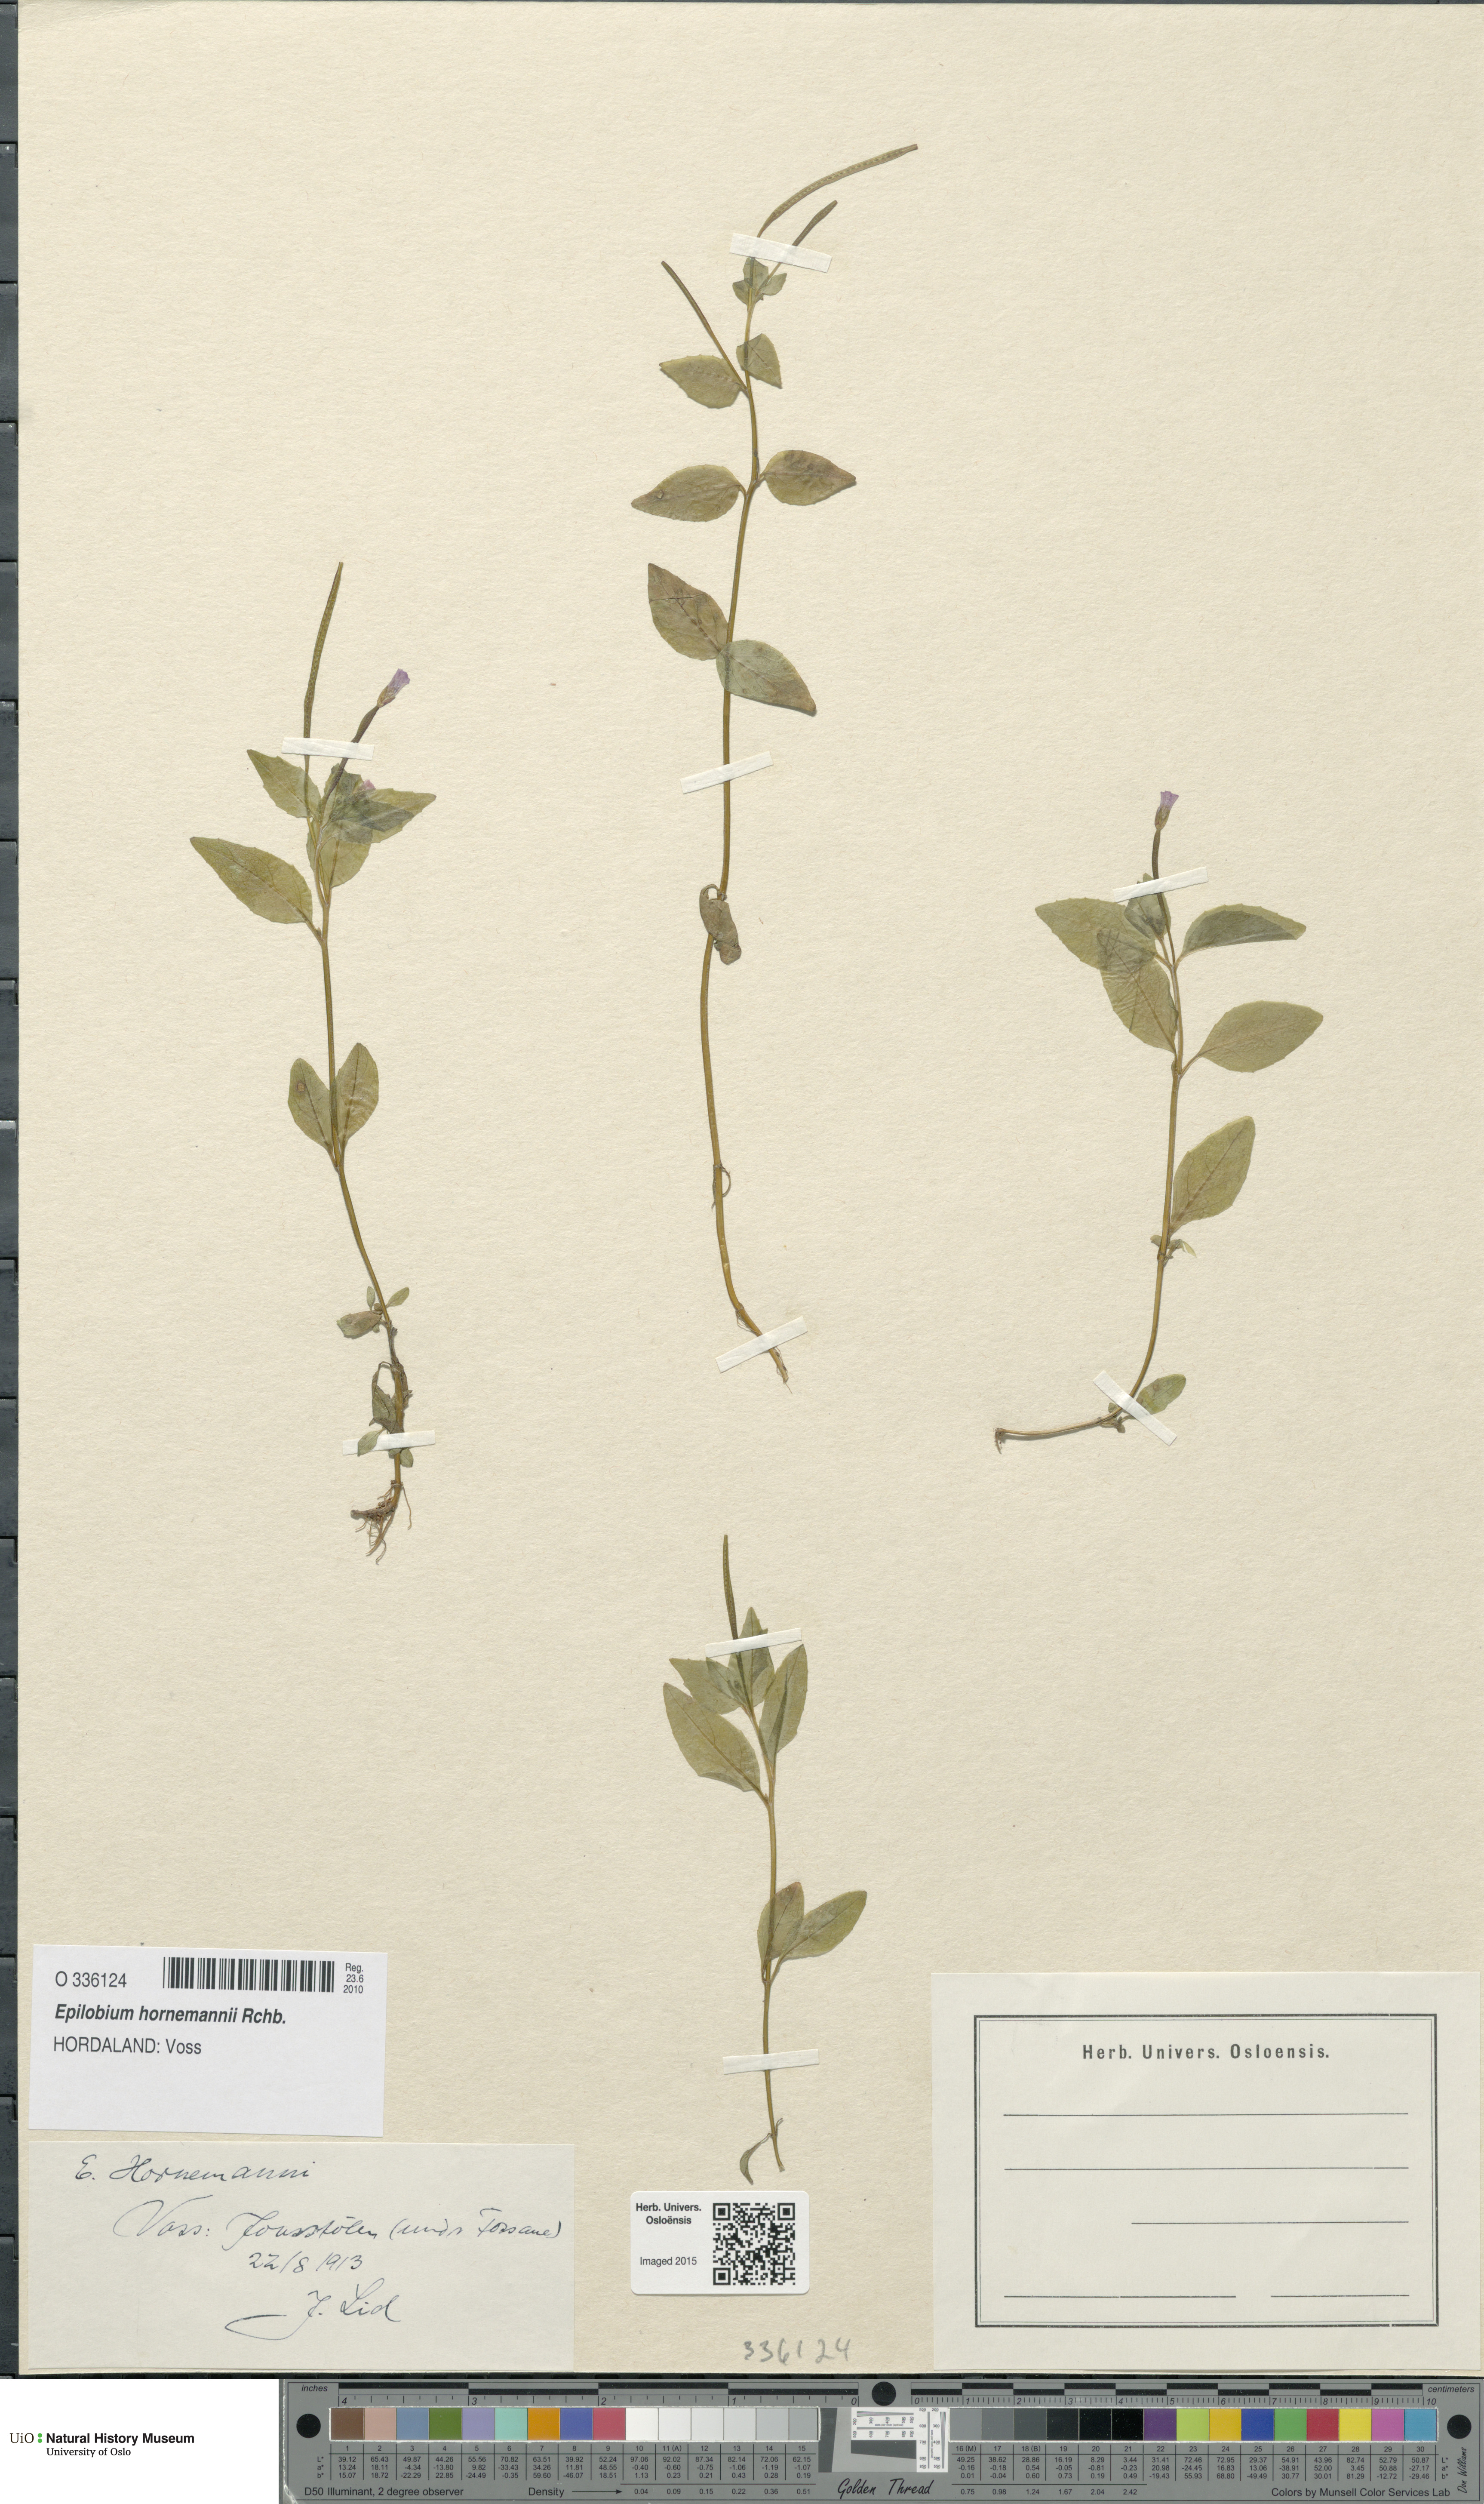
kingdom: Plantae
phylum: Tracheophyta
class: Magnoliopsida
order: Myrtales
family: Onagraceae
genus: Epilobium
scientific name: Epilobium hornemannii
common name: Hornemann's willowherb
